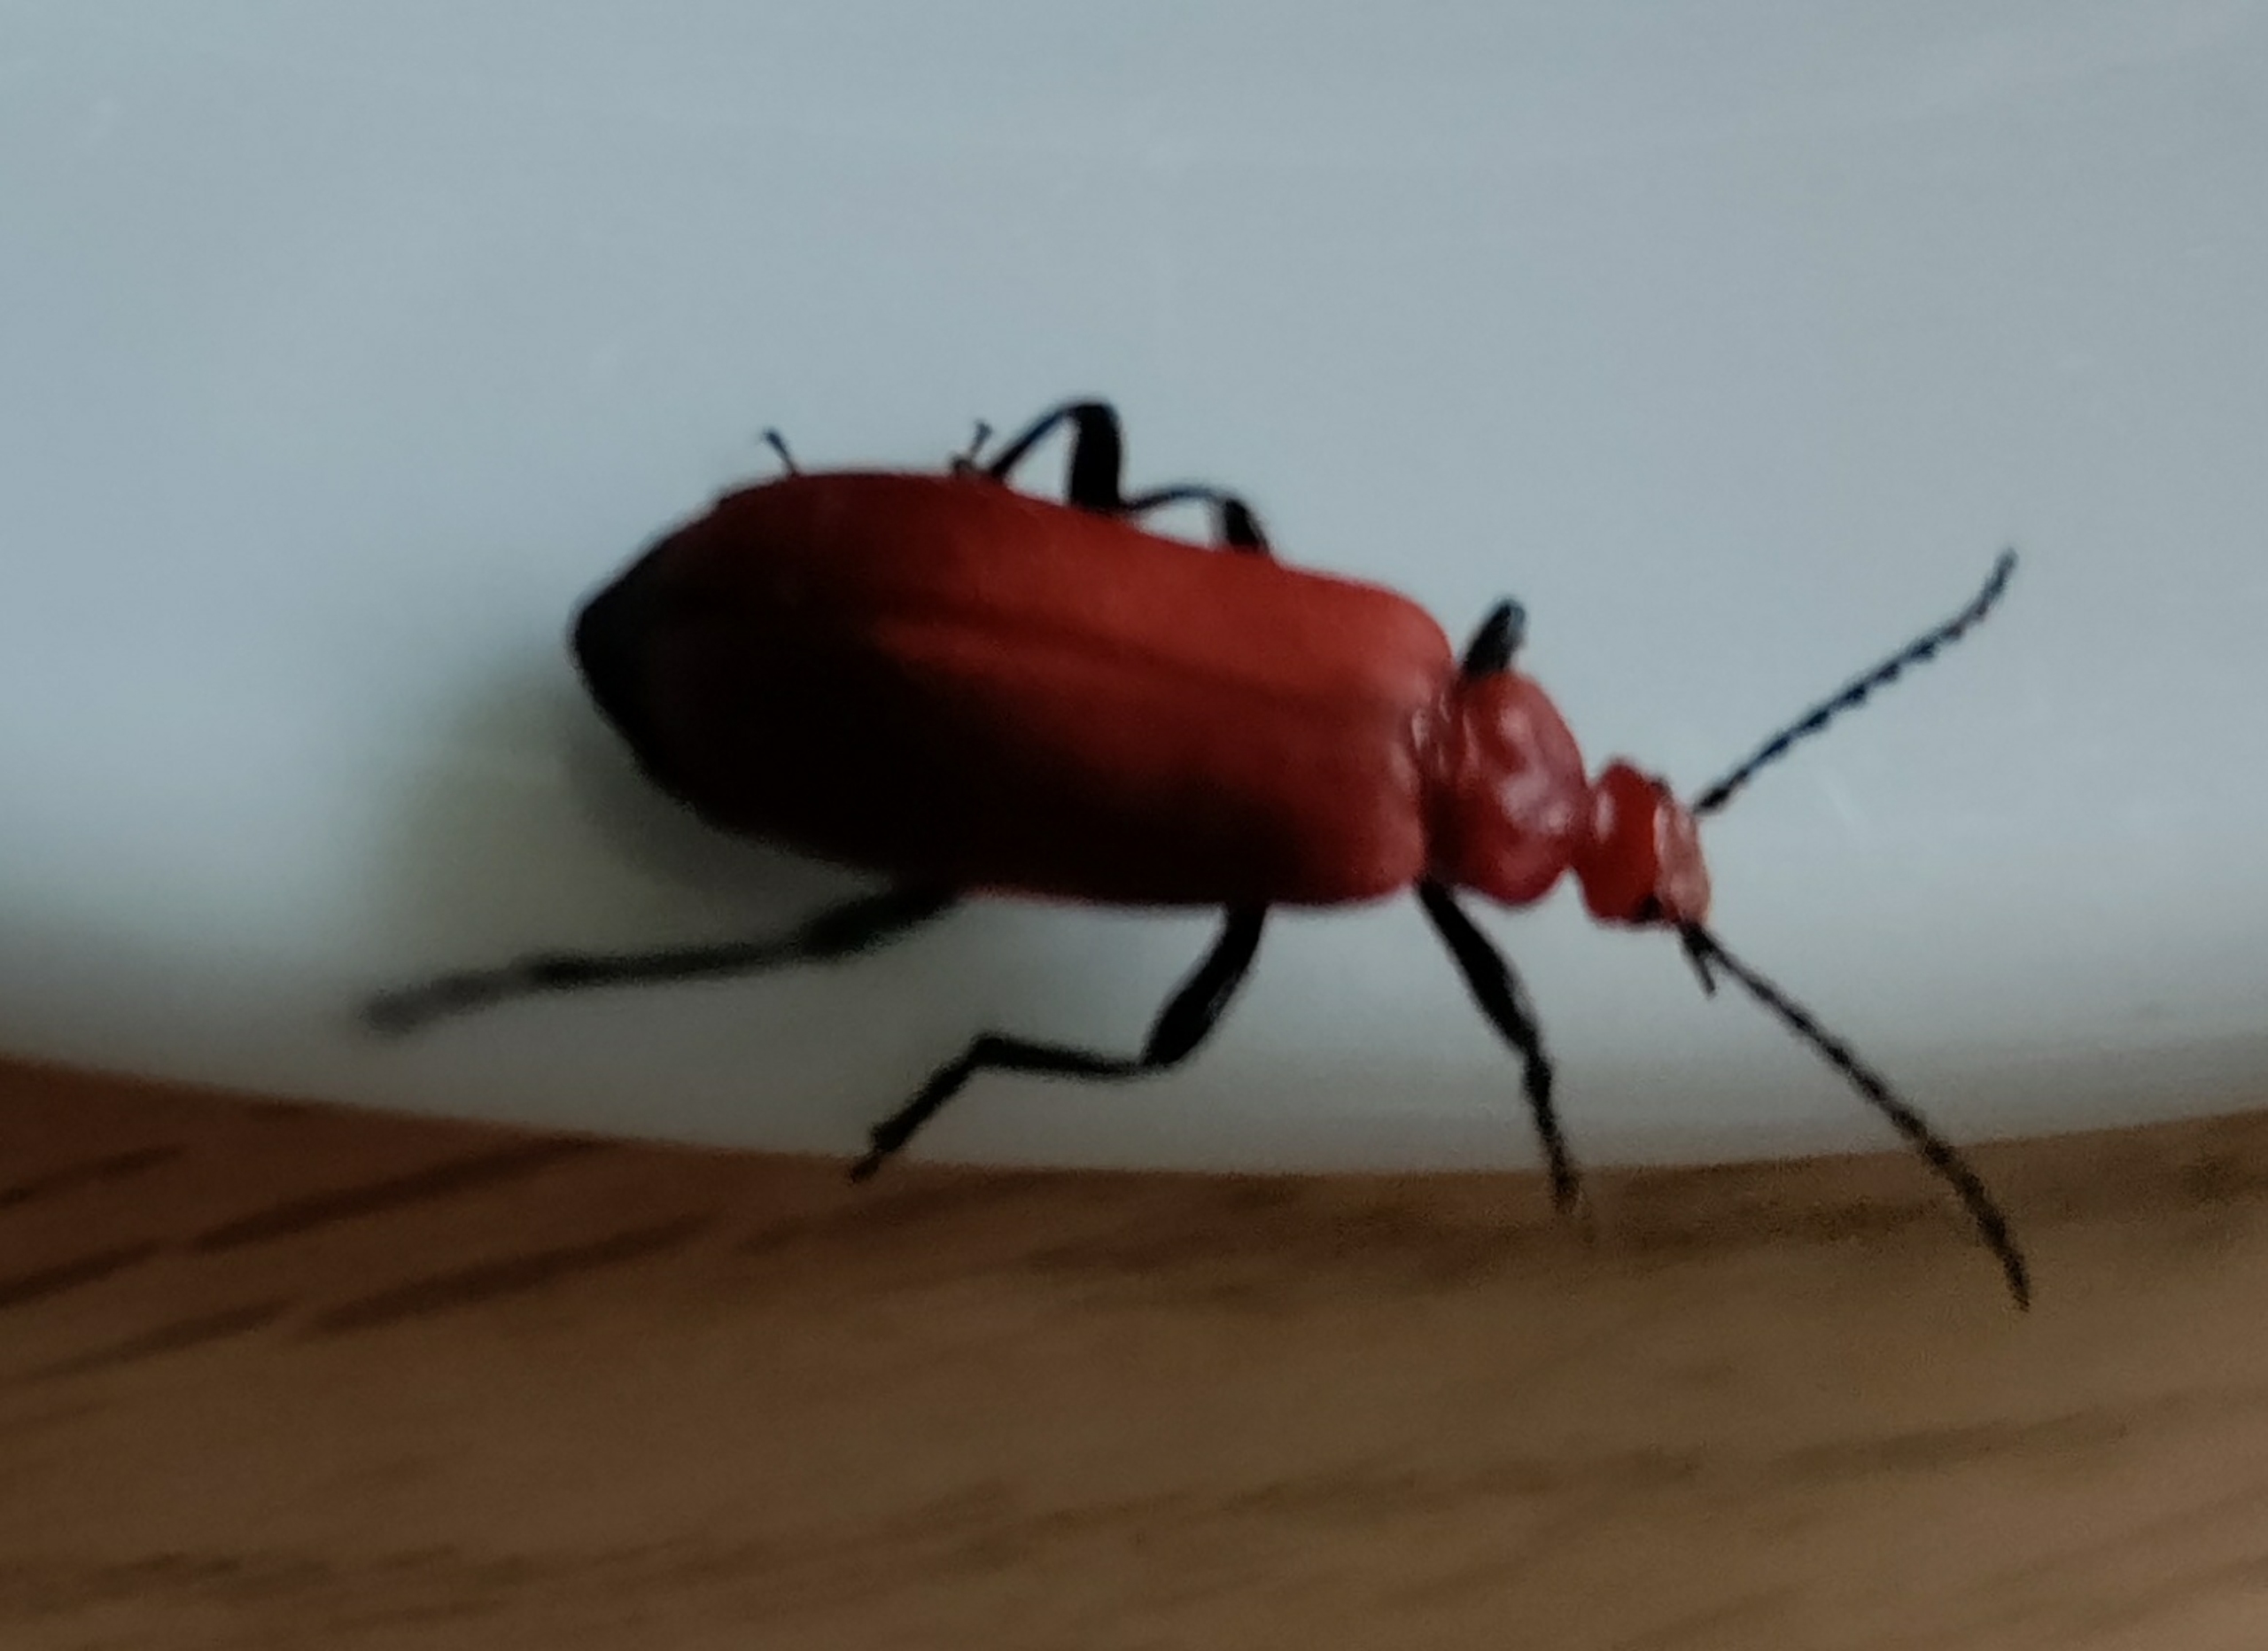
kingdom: Animalia
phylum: Arthropoda
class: Insecta
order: Coleoptera
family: Pyrochroidae
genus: Pyrochroa
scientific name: Pyrochroa serraticornis
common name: Rødhovedet kardinalbille
